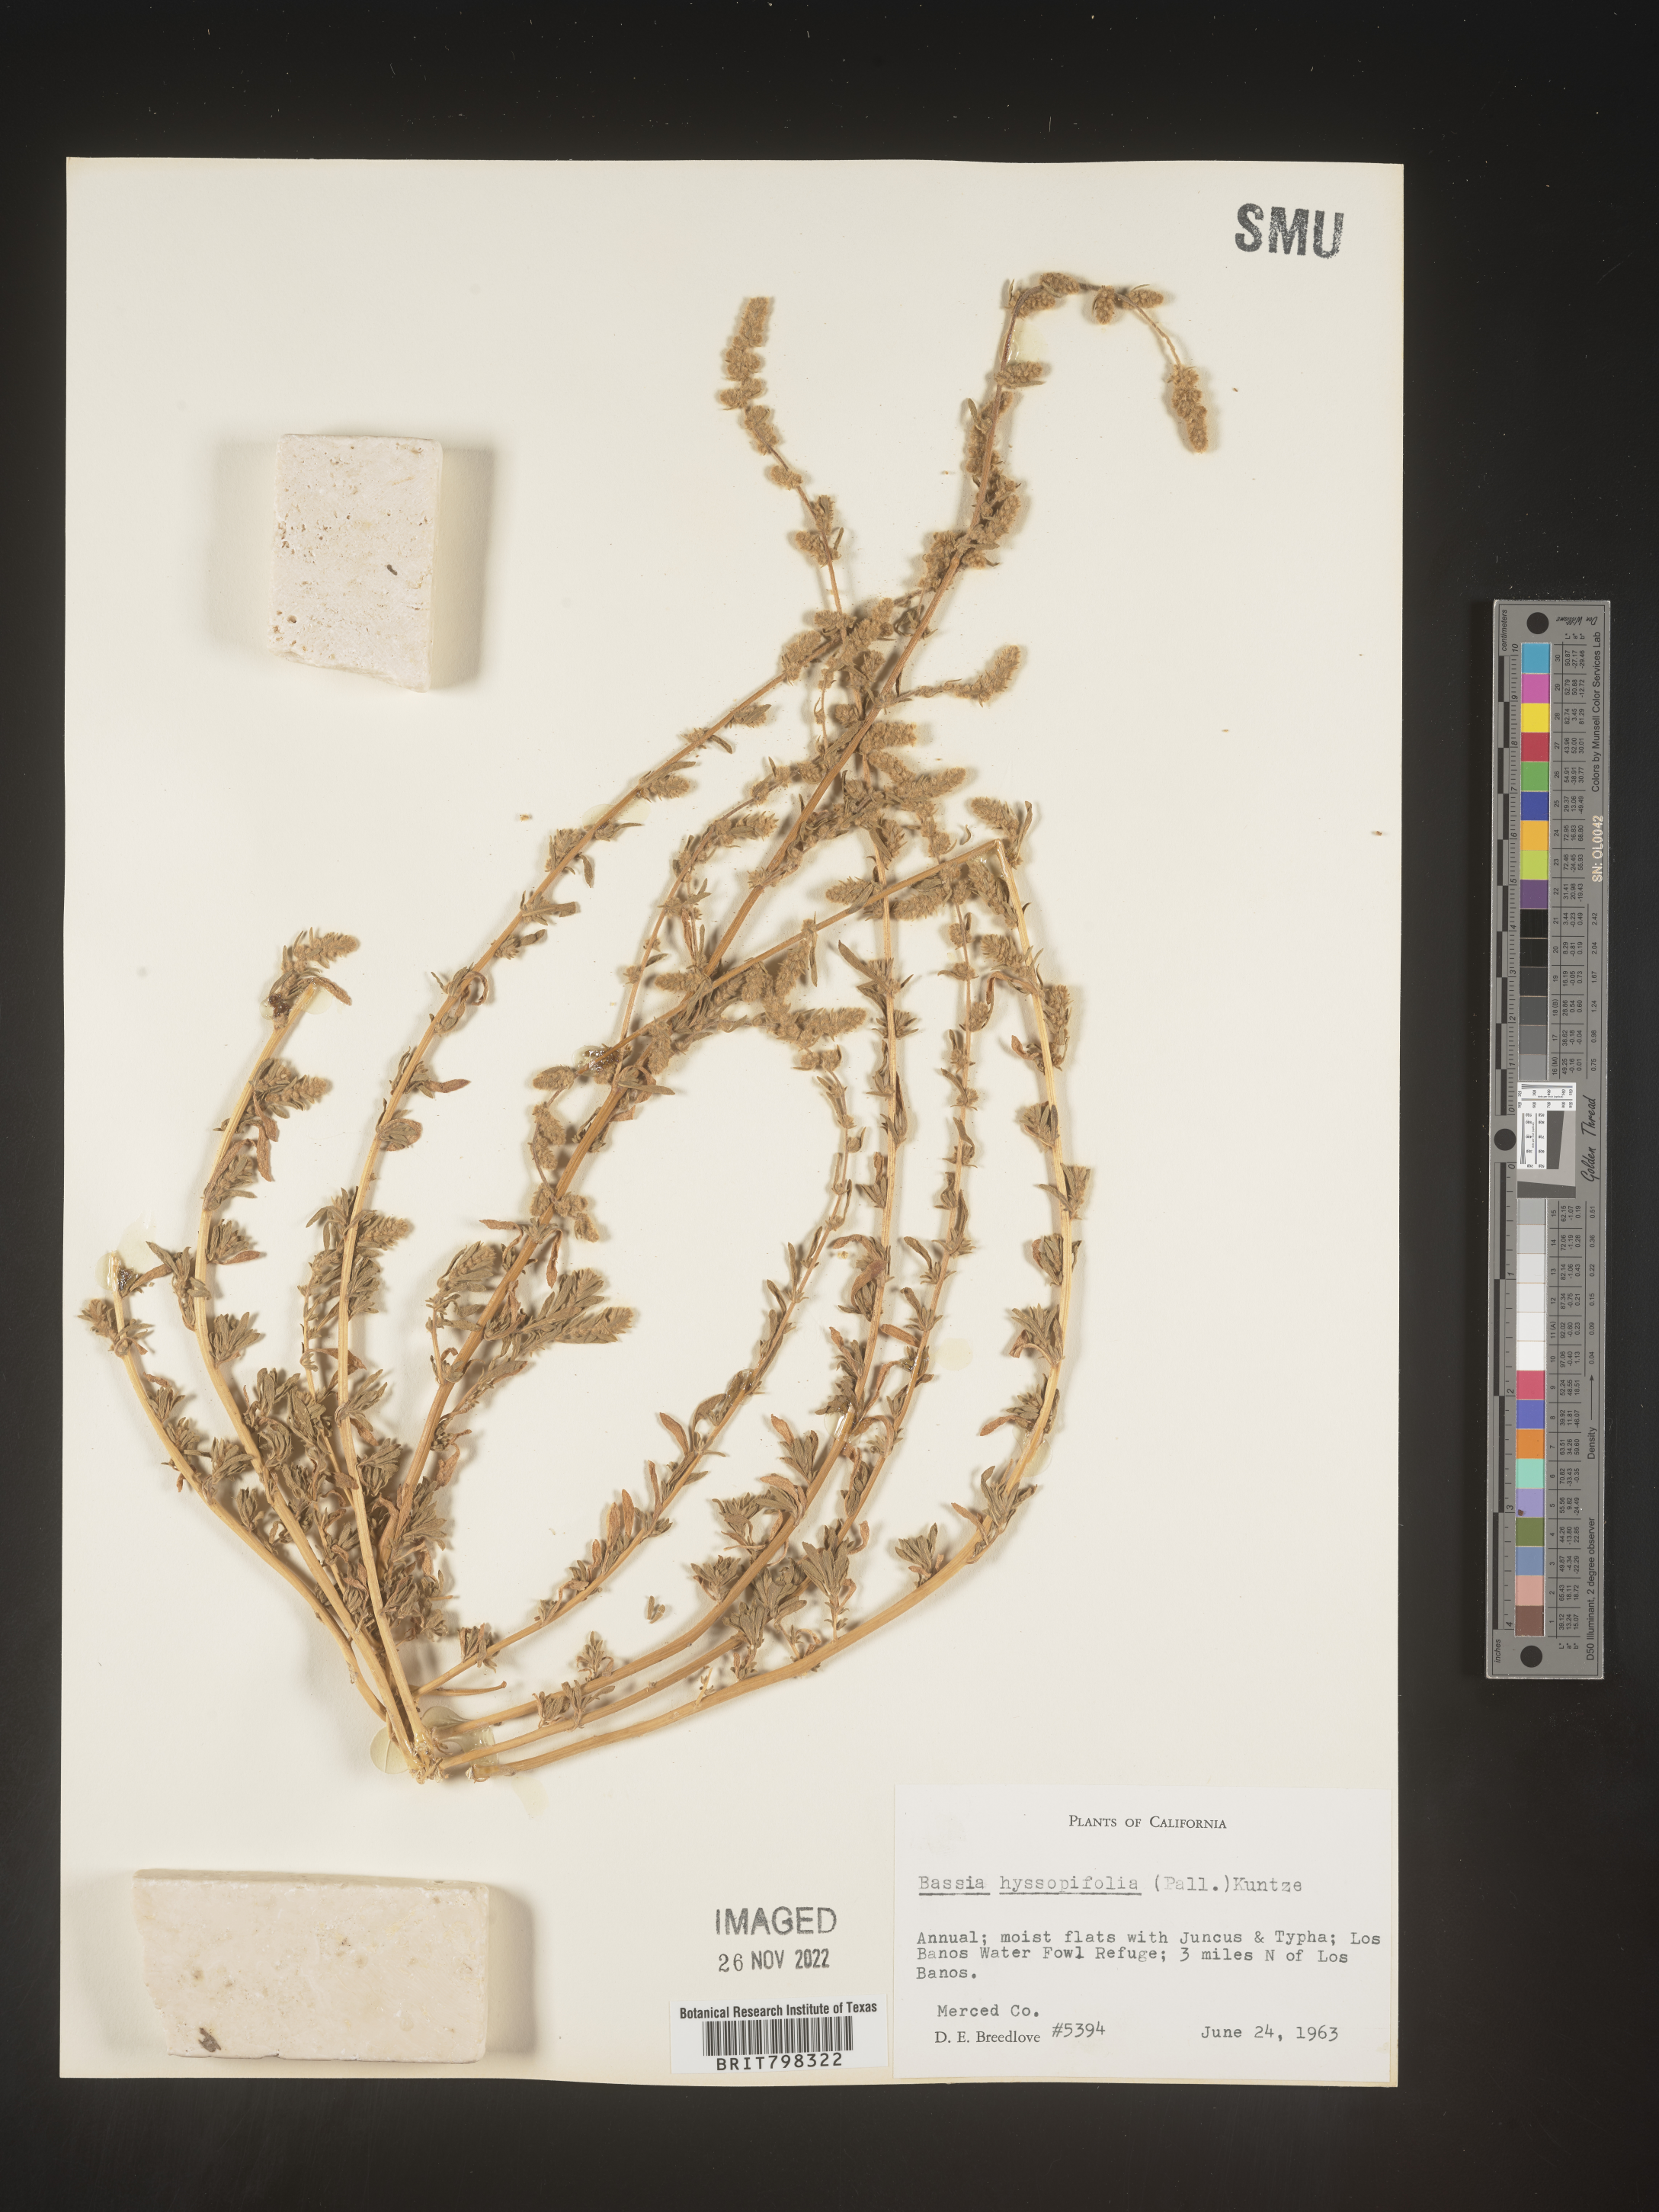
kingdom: Plantae
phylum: Tracheophyta
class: Magnoliopsida
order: Caryophyllales
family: Amaranthaceae
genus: Bassia
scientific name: Bassia hyssopifolia
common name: Fivehorn smotherweed
